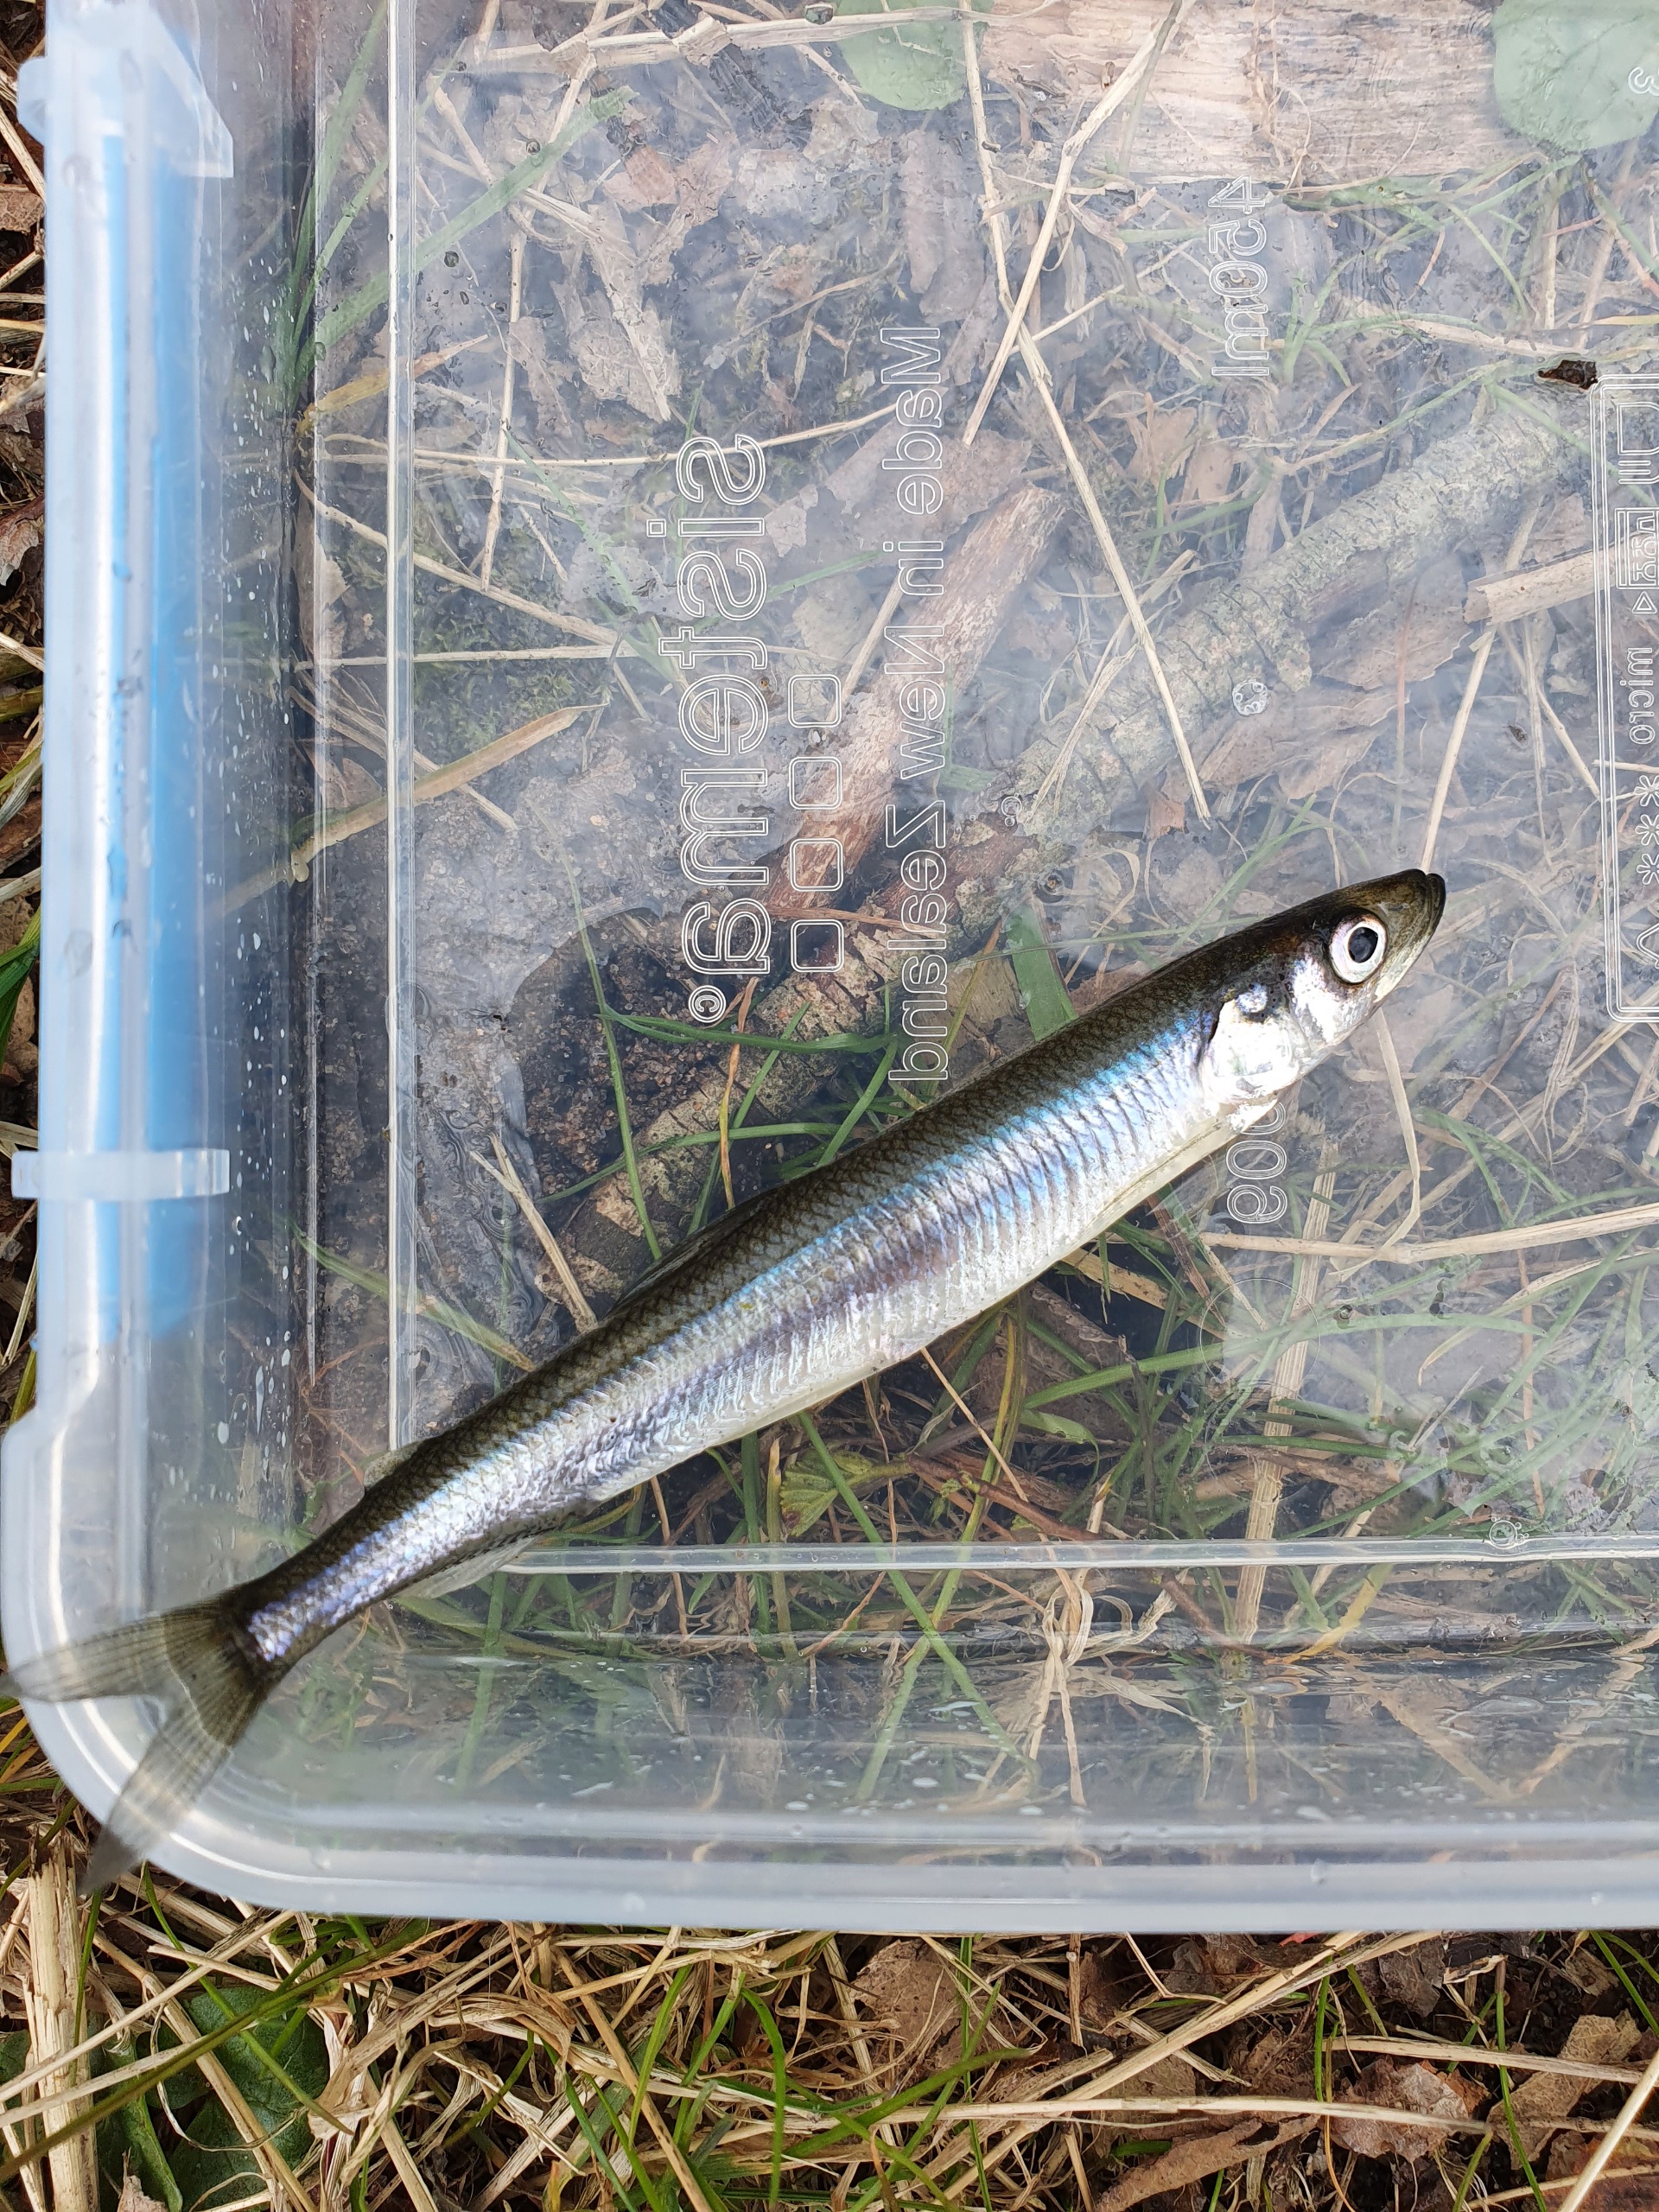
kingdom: Animalia
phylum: Chordata
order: Osmeriformes
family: Osmeridae
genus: Osmerus
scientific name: Osmerus eperlanus
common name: Smelt
